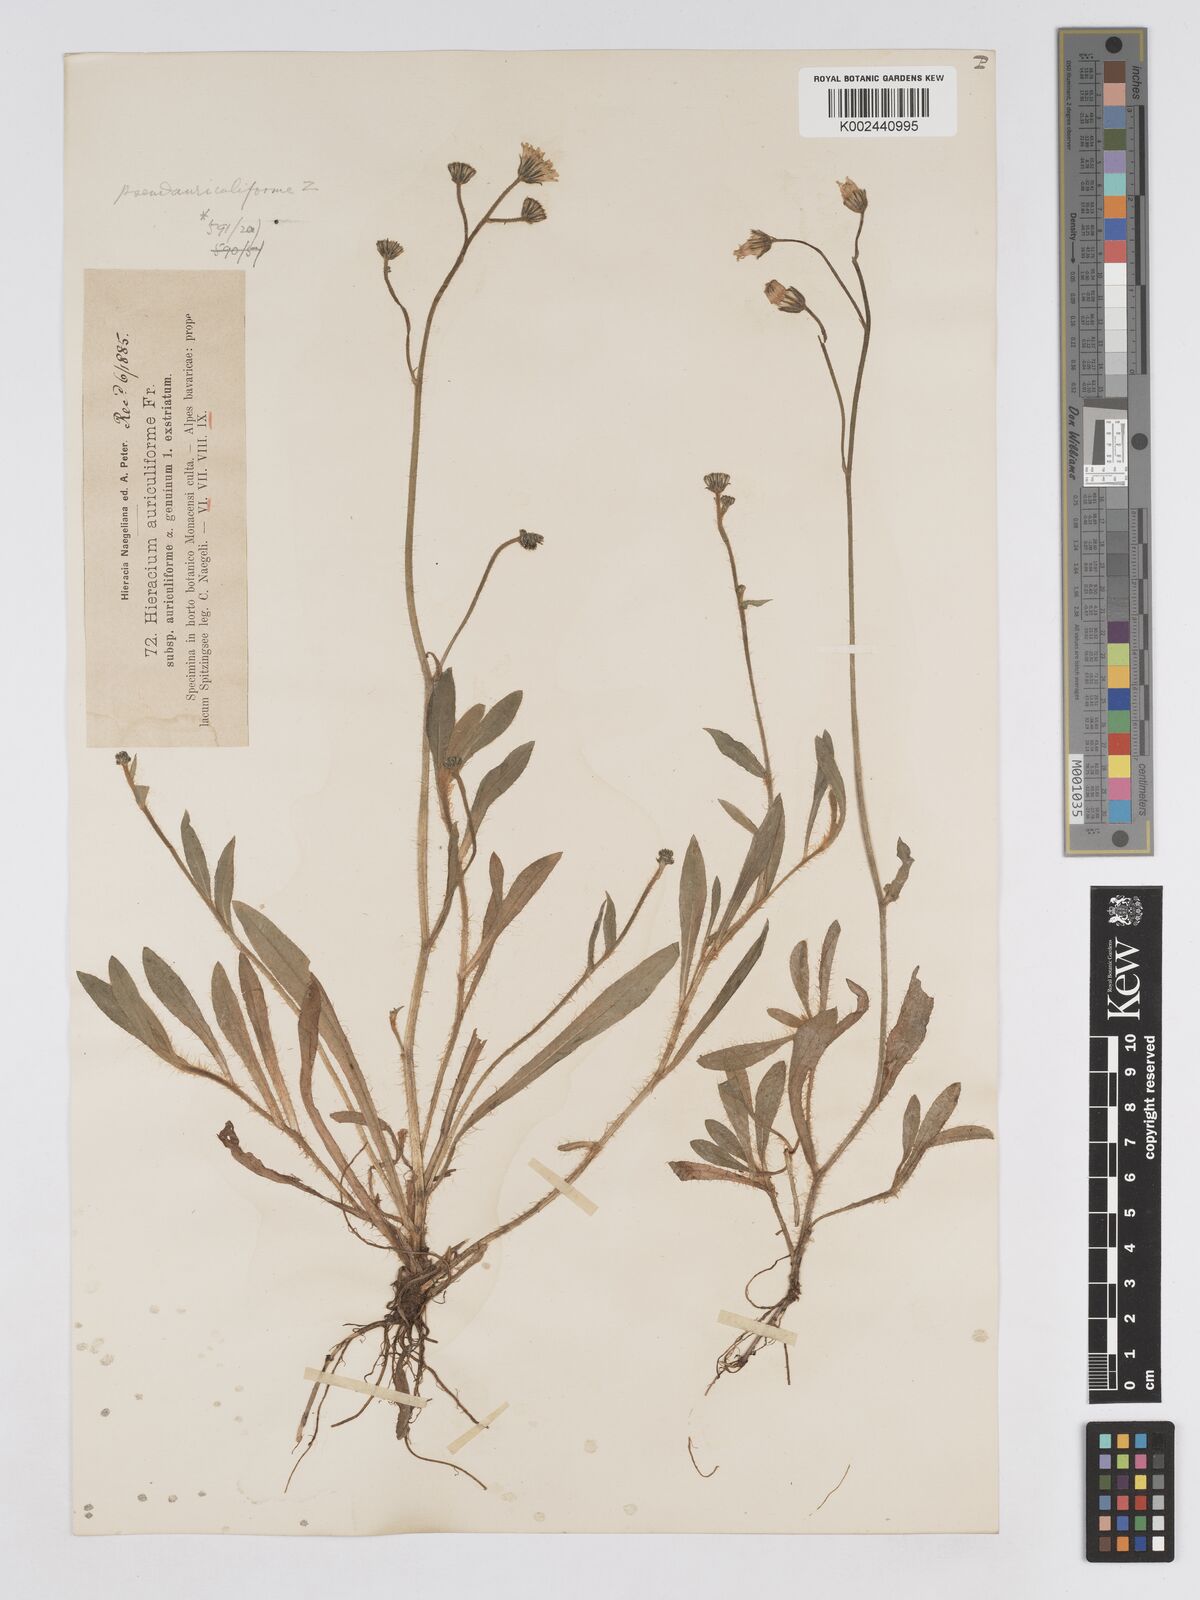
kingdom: Plantae
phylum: Tracheophyta
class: Magnoliopsida
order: Asterales
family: Asteraceae
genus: Pilosella
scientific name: Pilosella schultesii
